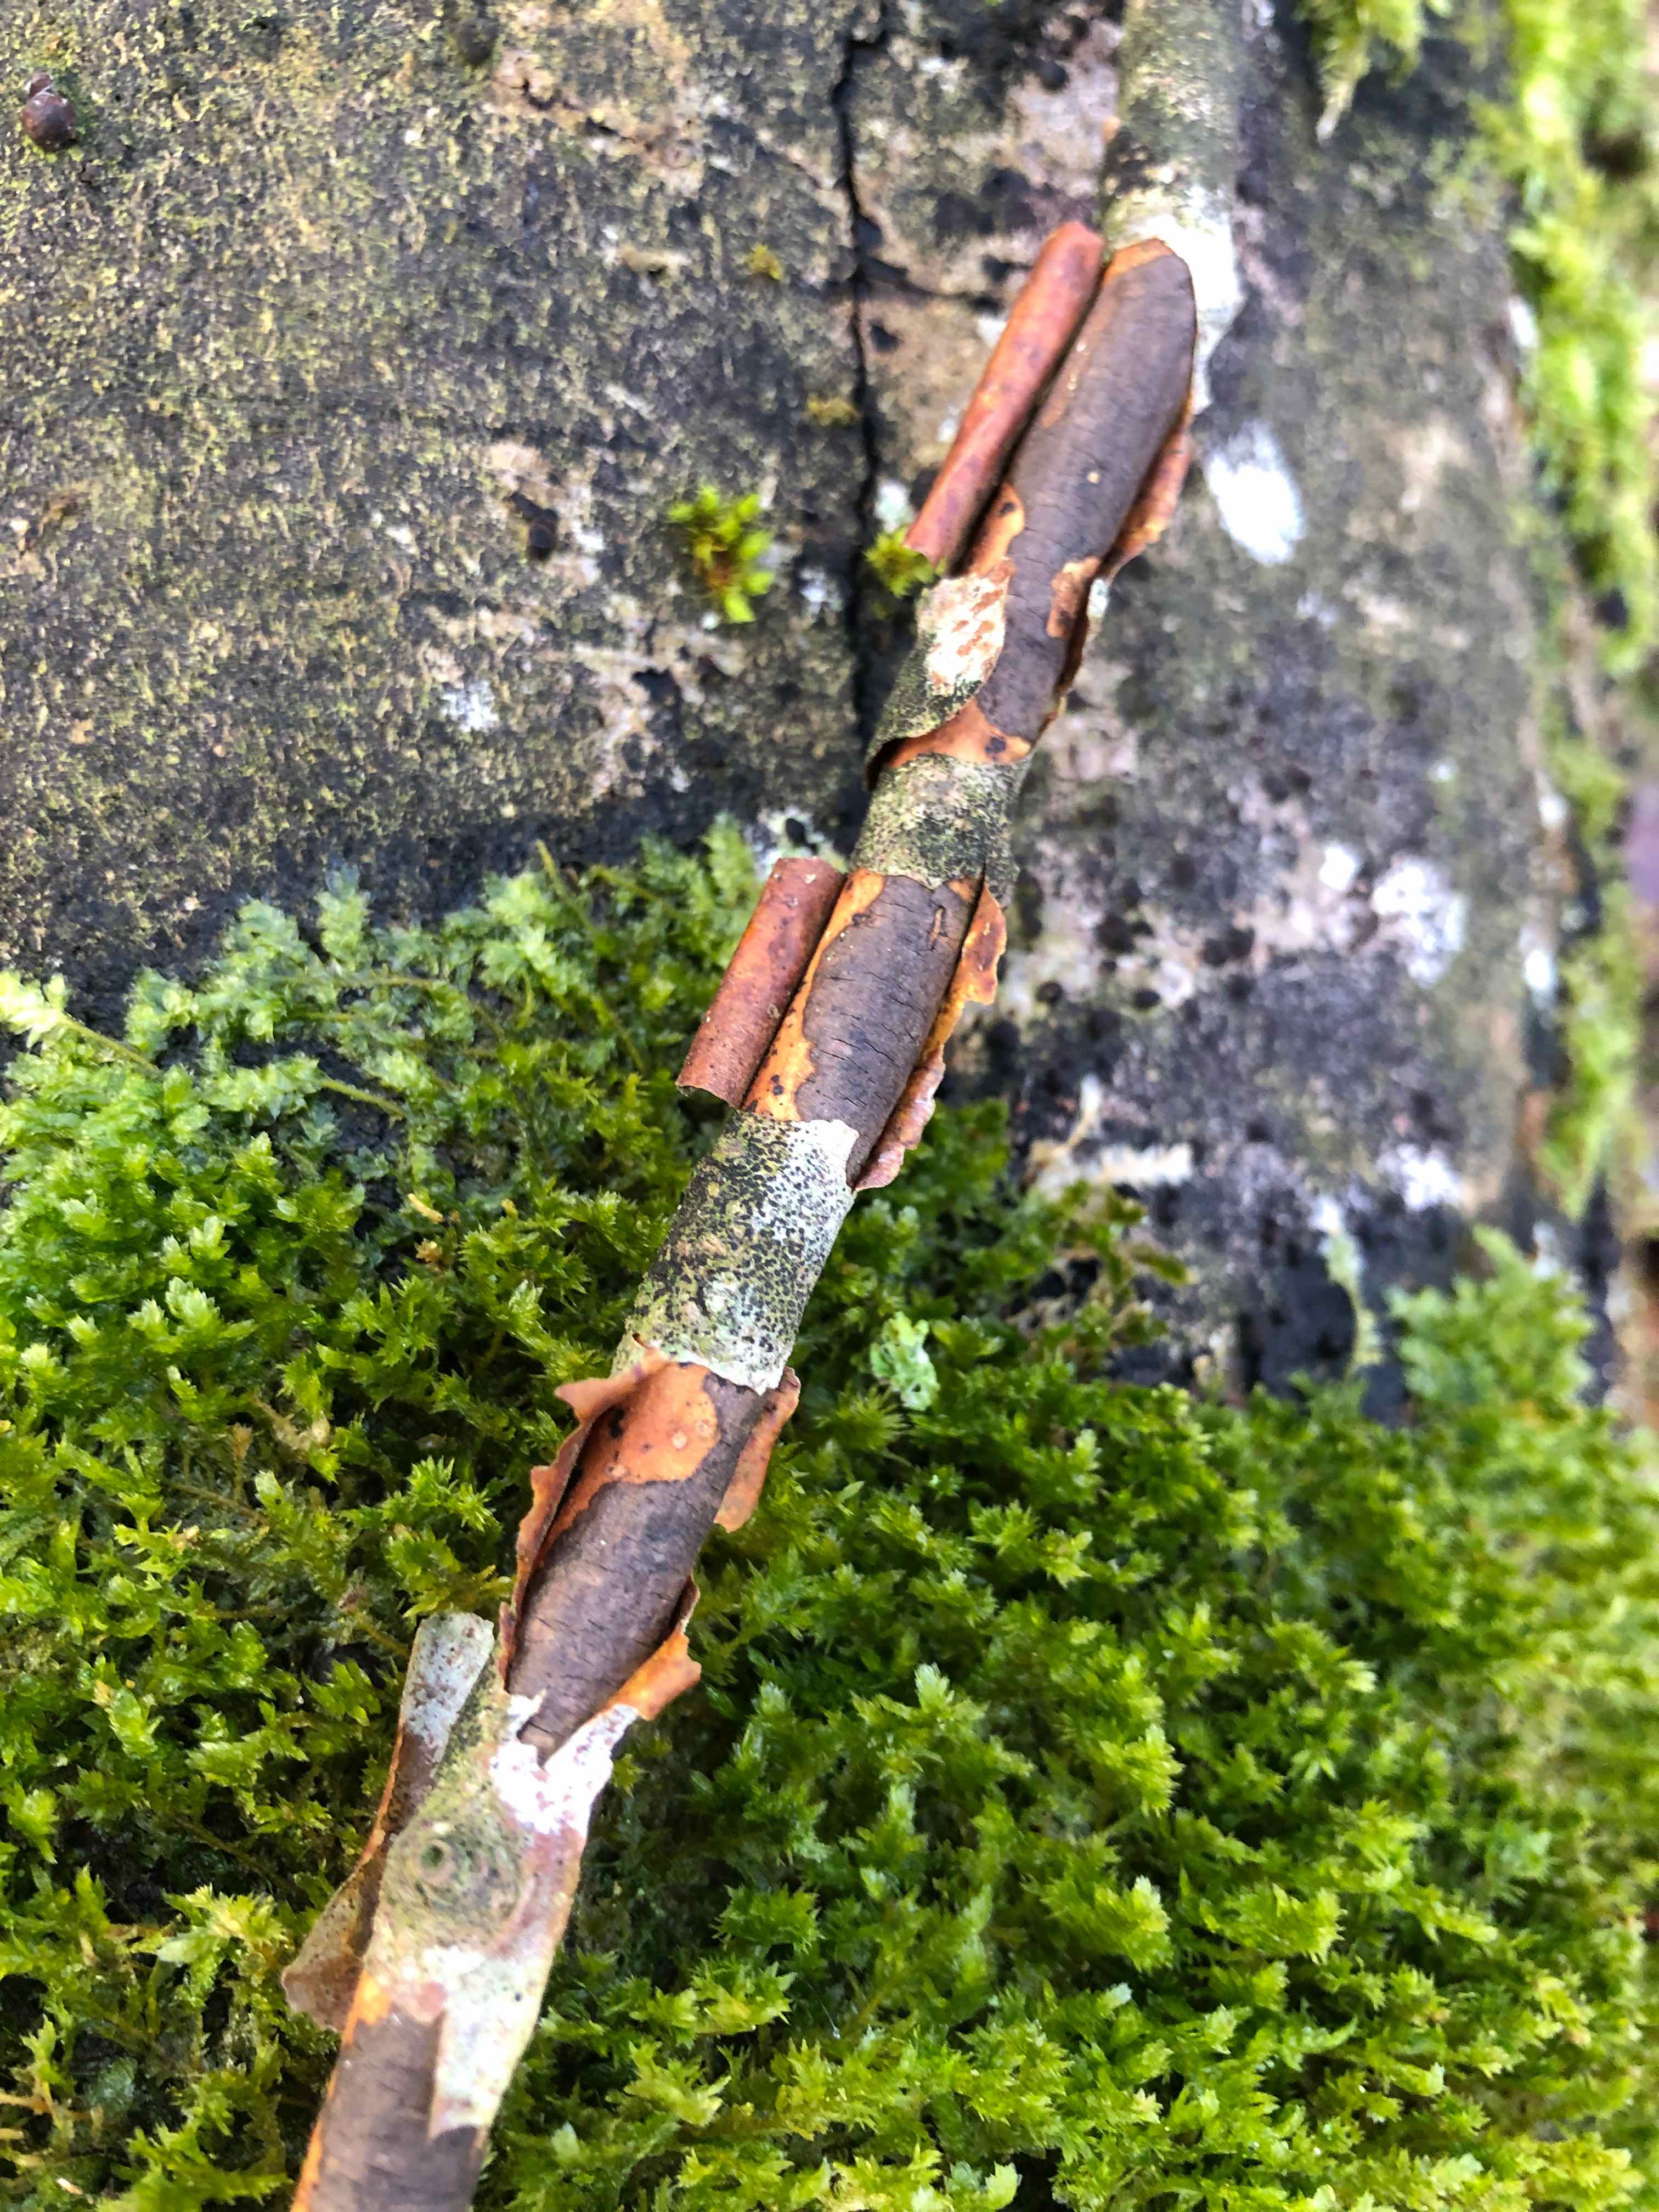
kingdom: Fungi
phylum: Ascomycota
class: Sordariomycetes
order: Xylariales
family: Diatrypaceae
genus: Diatrype
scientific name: Diatrype decorticata
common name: barksprænger-kulskorpe
